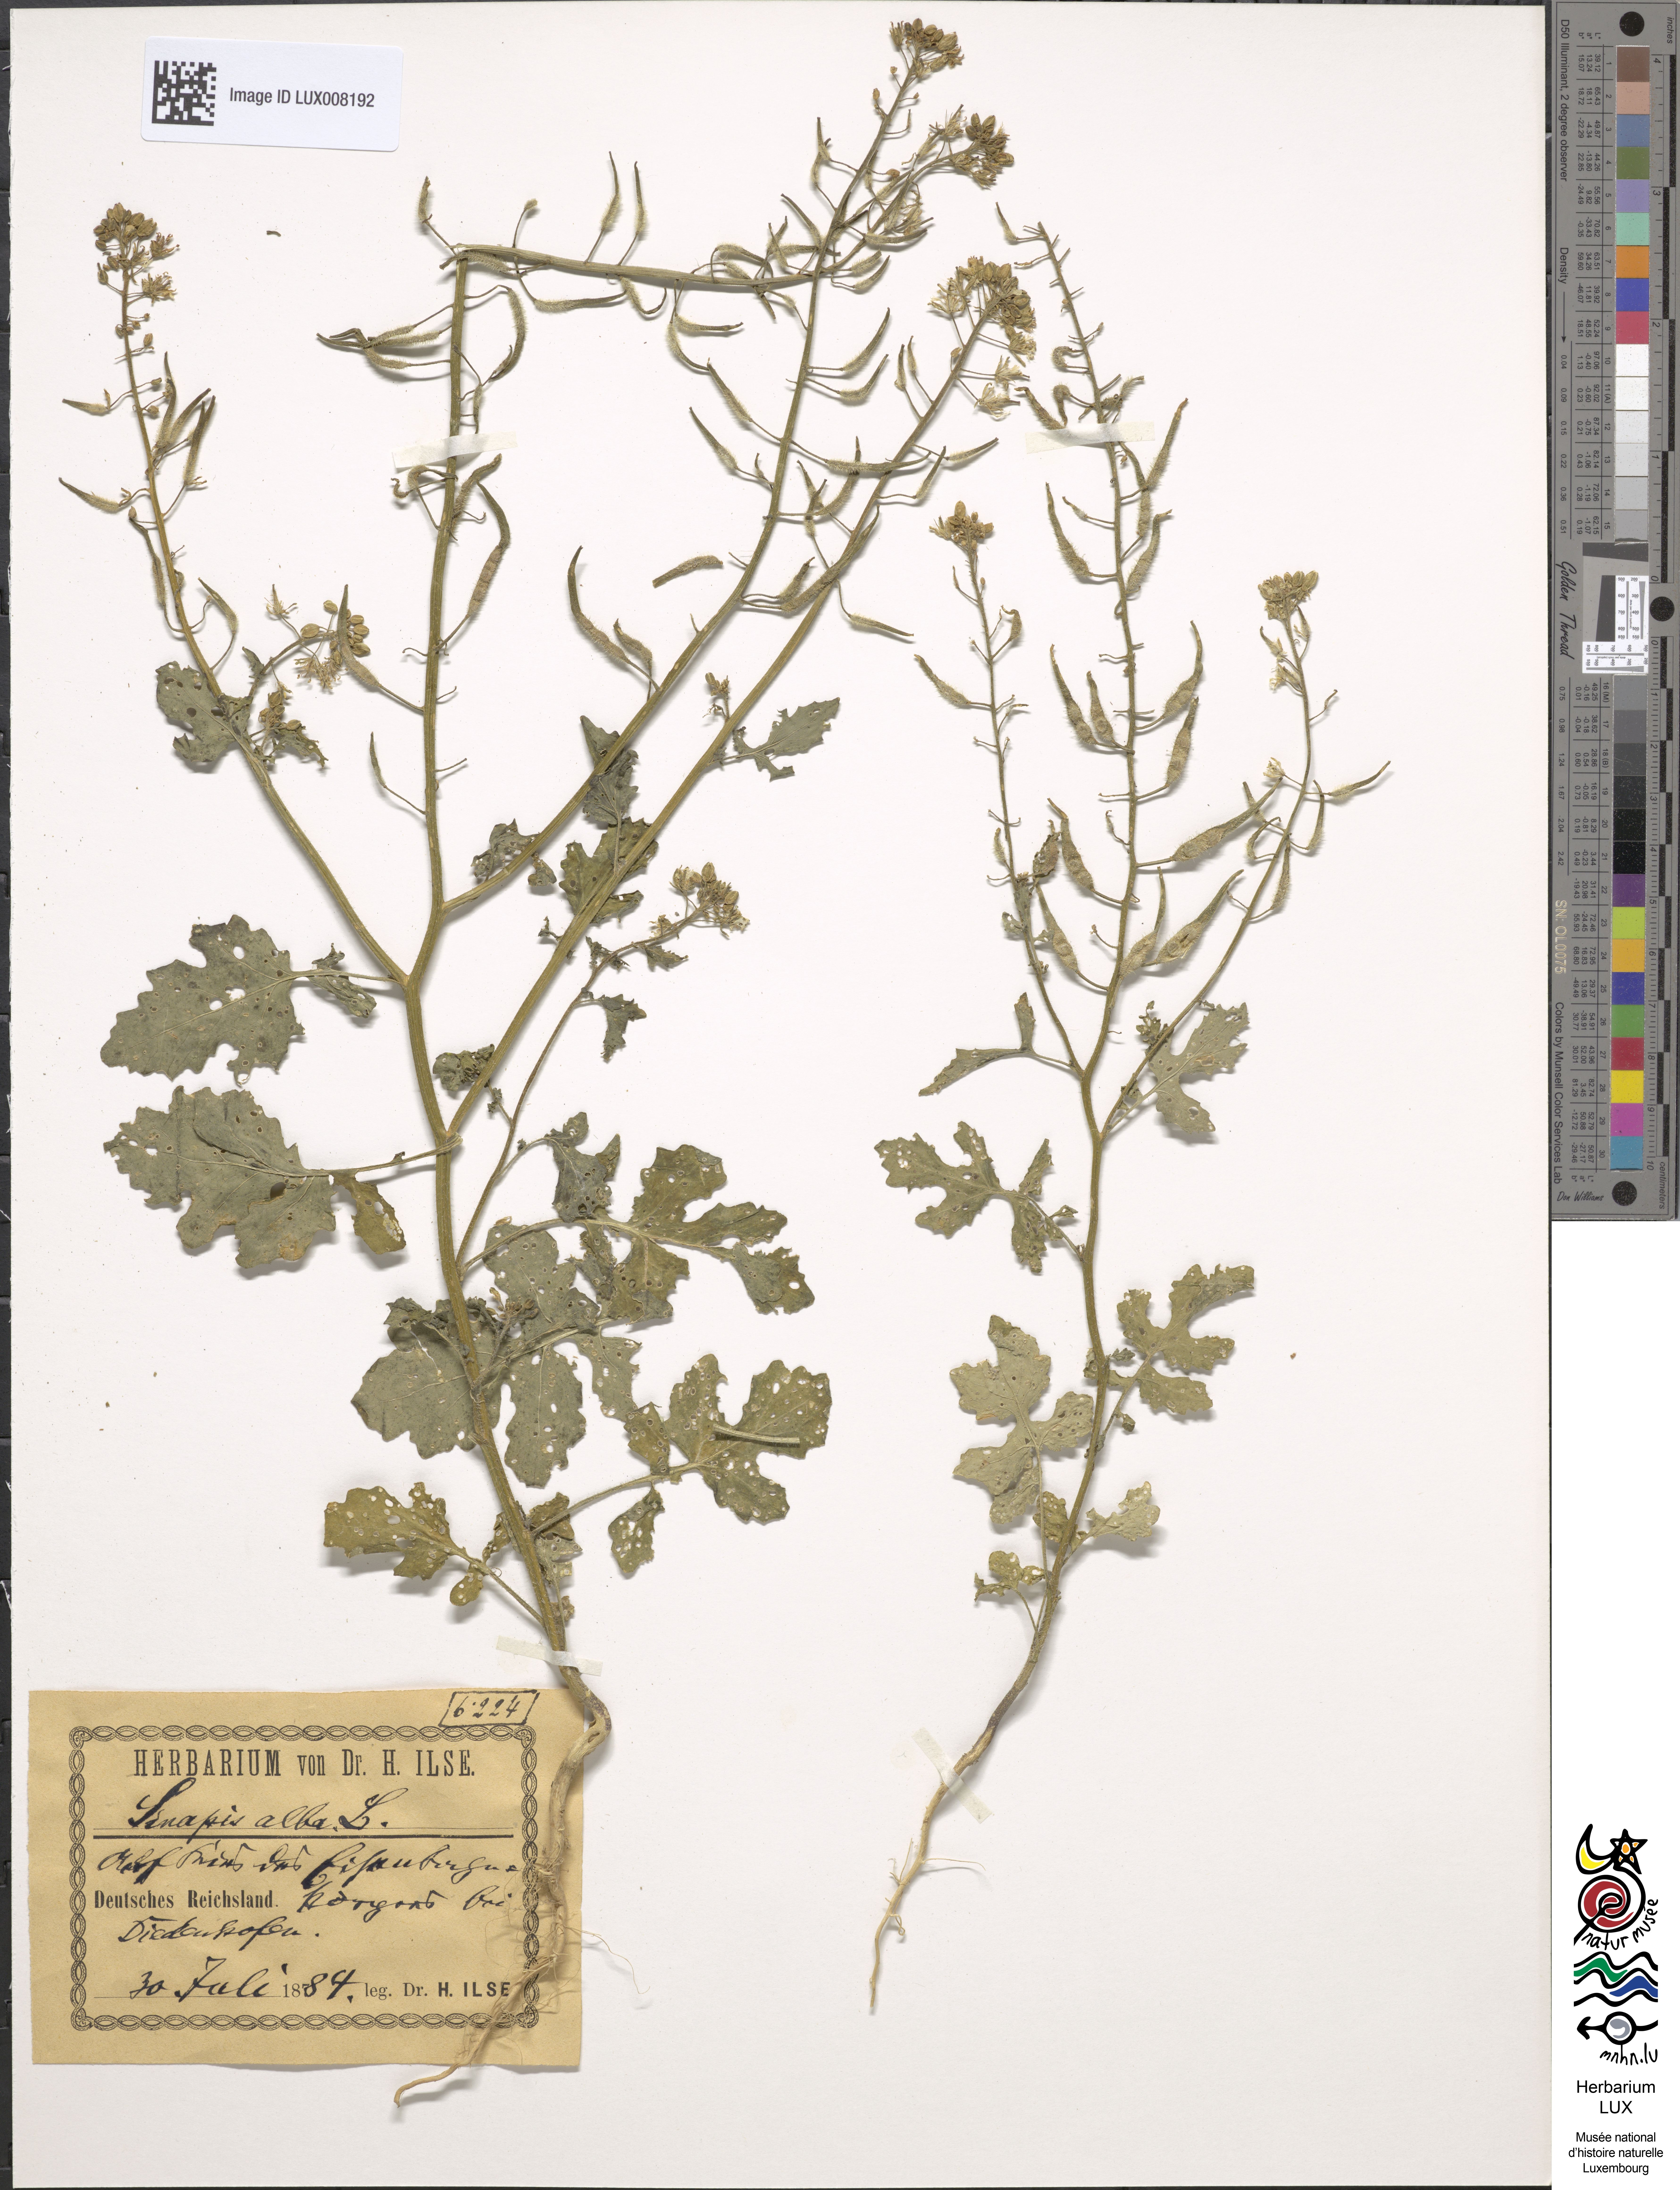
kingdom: Plantae
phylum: Tracheophyta
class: Magnoliopsida
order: Brassicales
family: Brassicaceae
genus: Sinapis
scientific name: Sinapis alba
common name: White mustard
